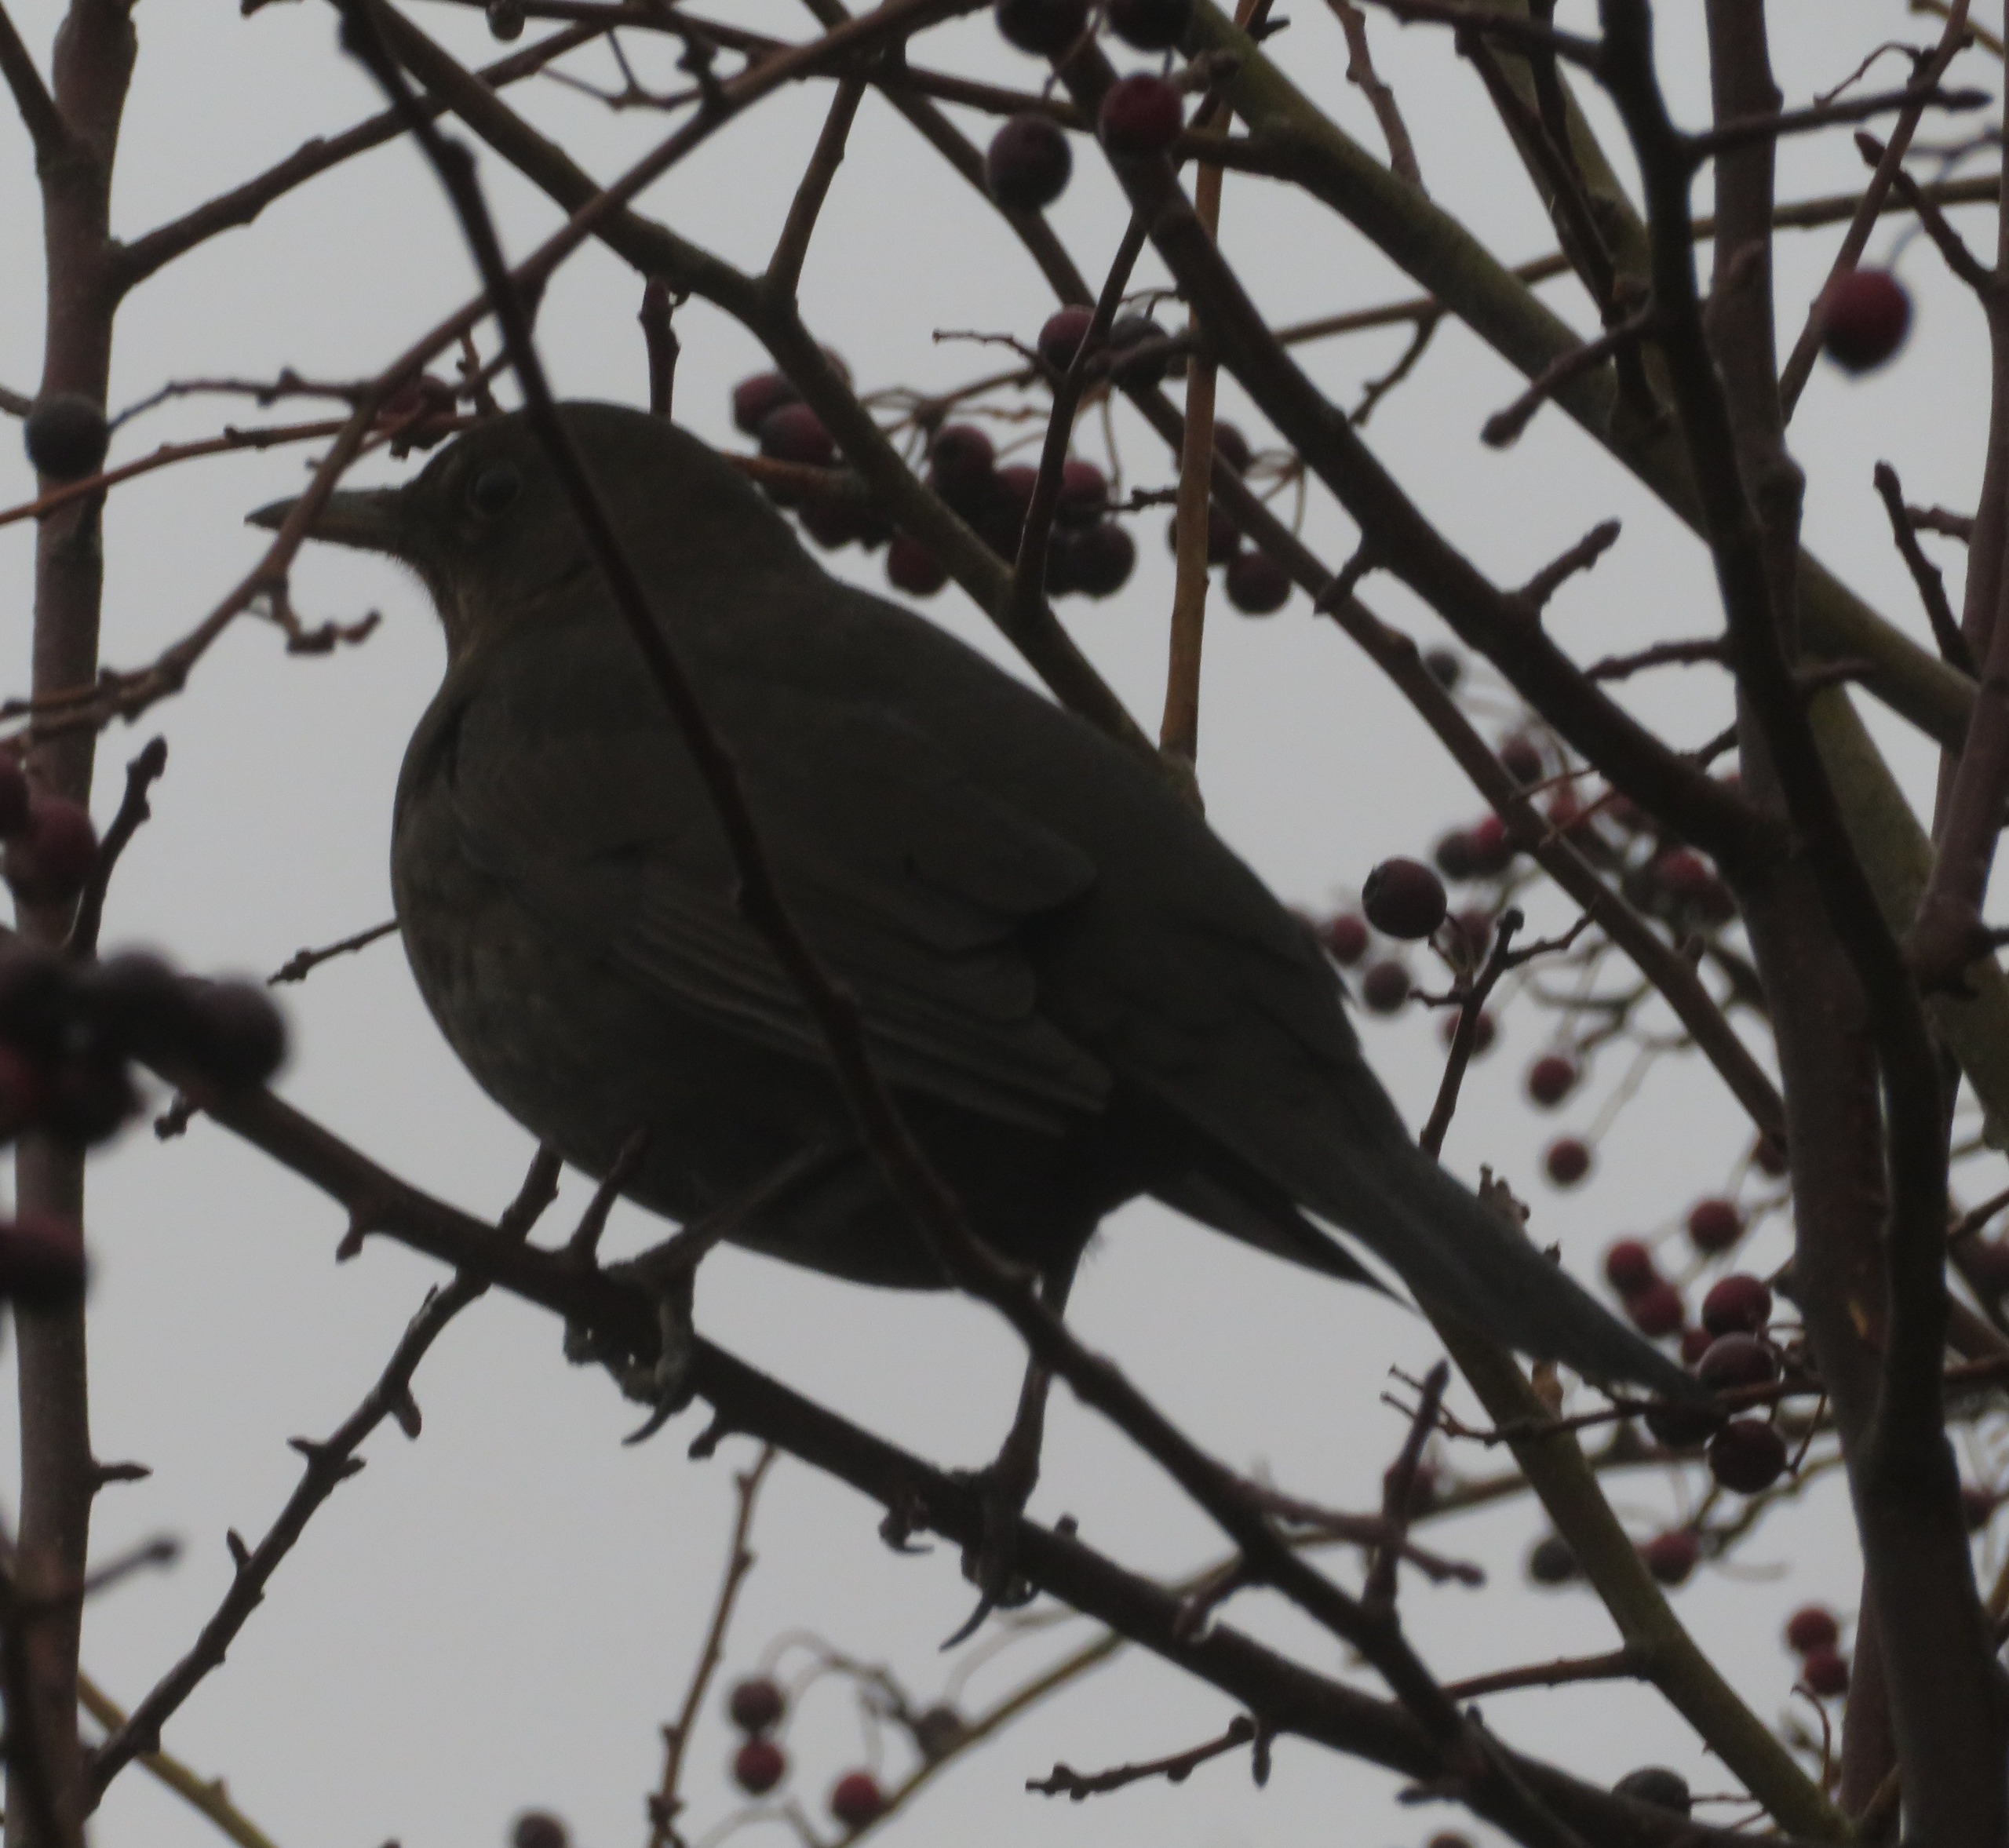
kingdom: Animalia
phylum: Chordata
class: Aves
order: Passeriformes
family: Turdidae
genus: Turdus
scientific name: Turdus merula
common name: Solsort
